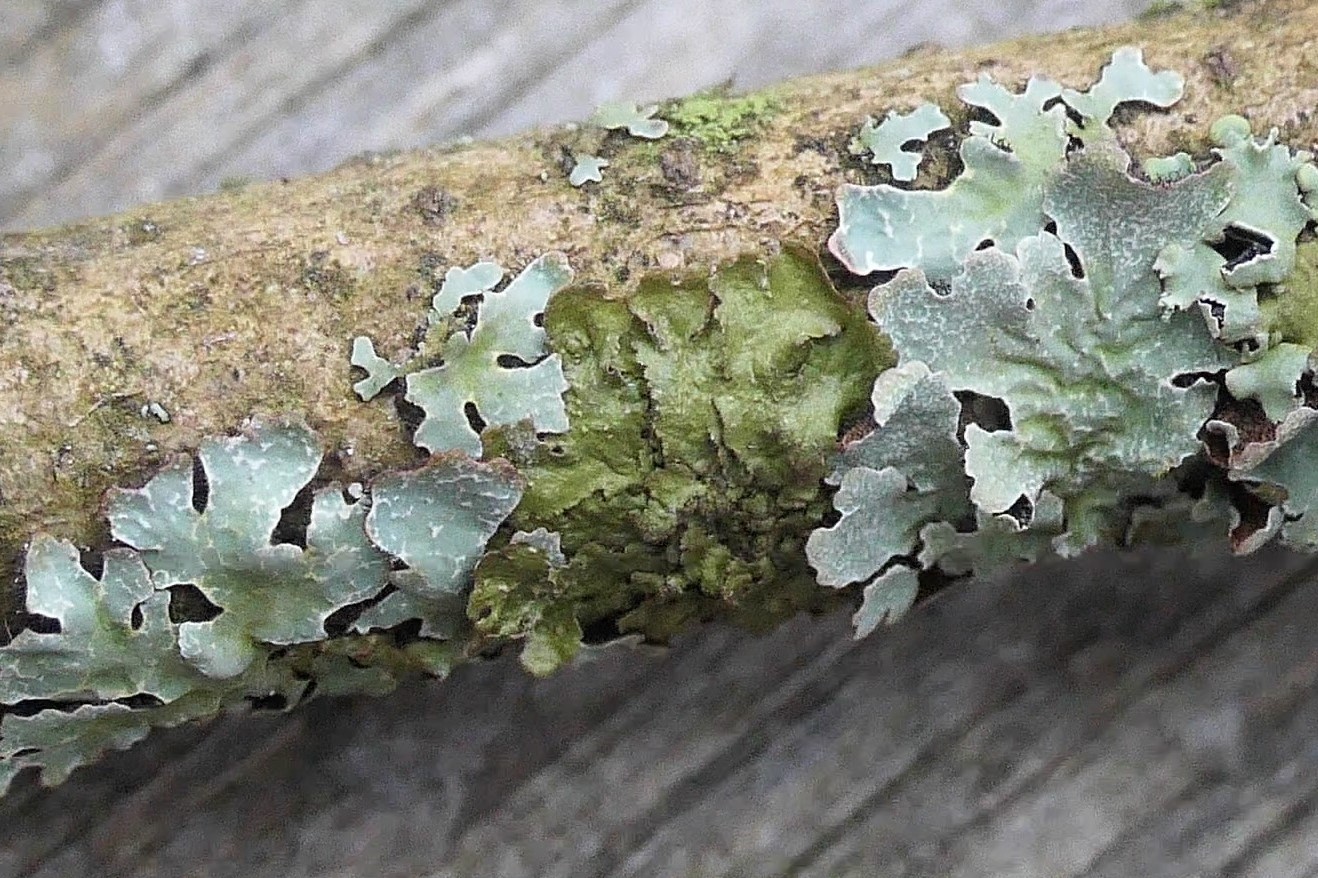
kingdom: Fungi
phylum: Ascomycota
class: Lecanoromycetes
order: Lecanorales
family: Parmeliaceae
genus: Melanelixia
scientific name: Melanelixia glabratula
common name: glinsende skållav
